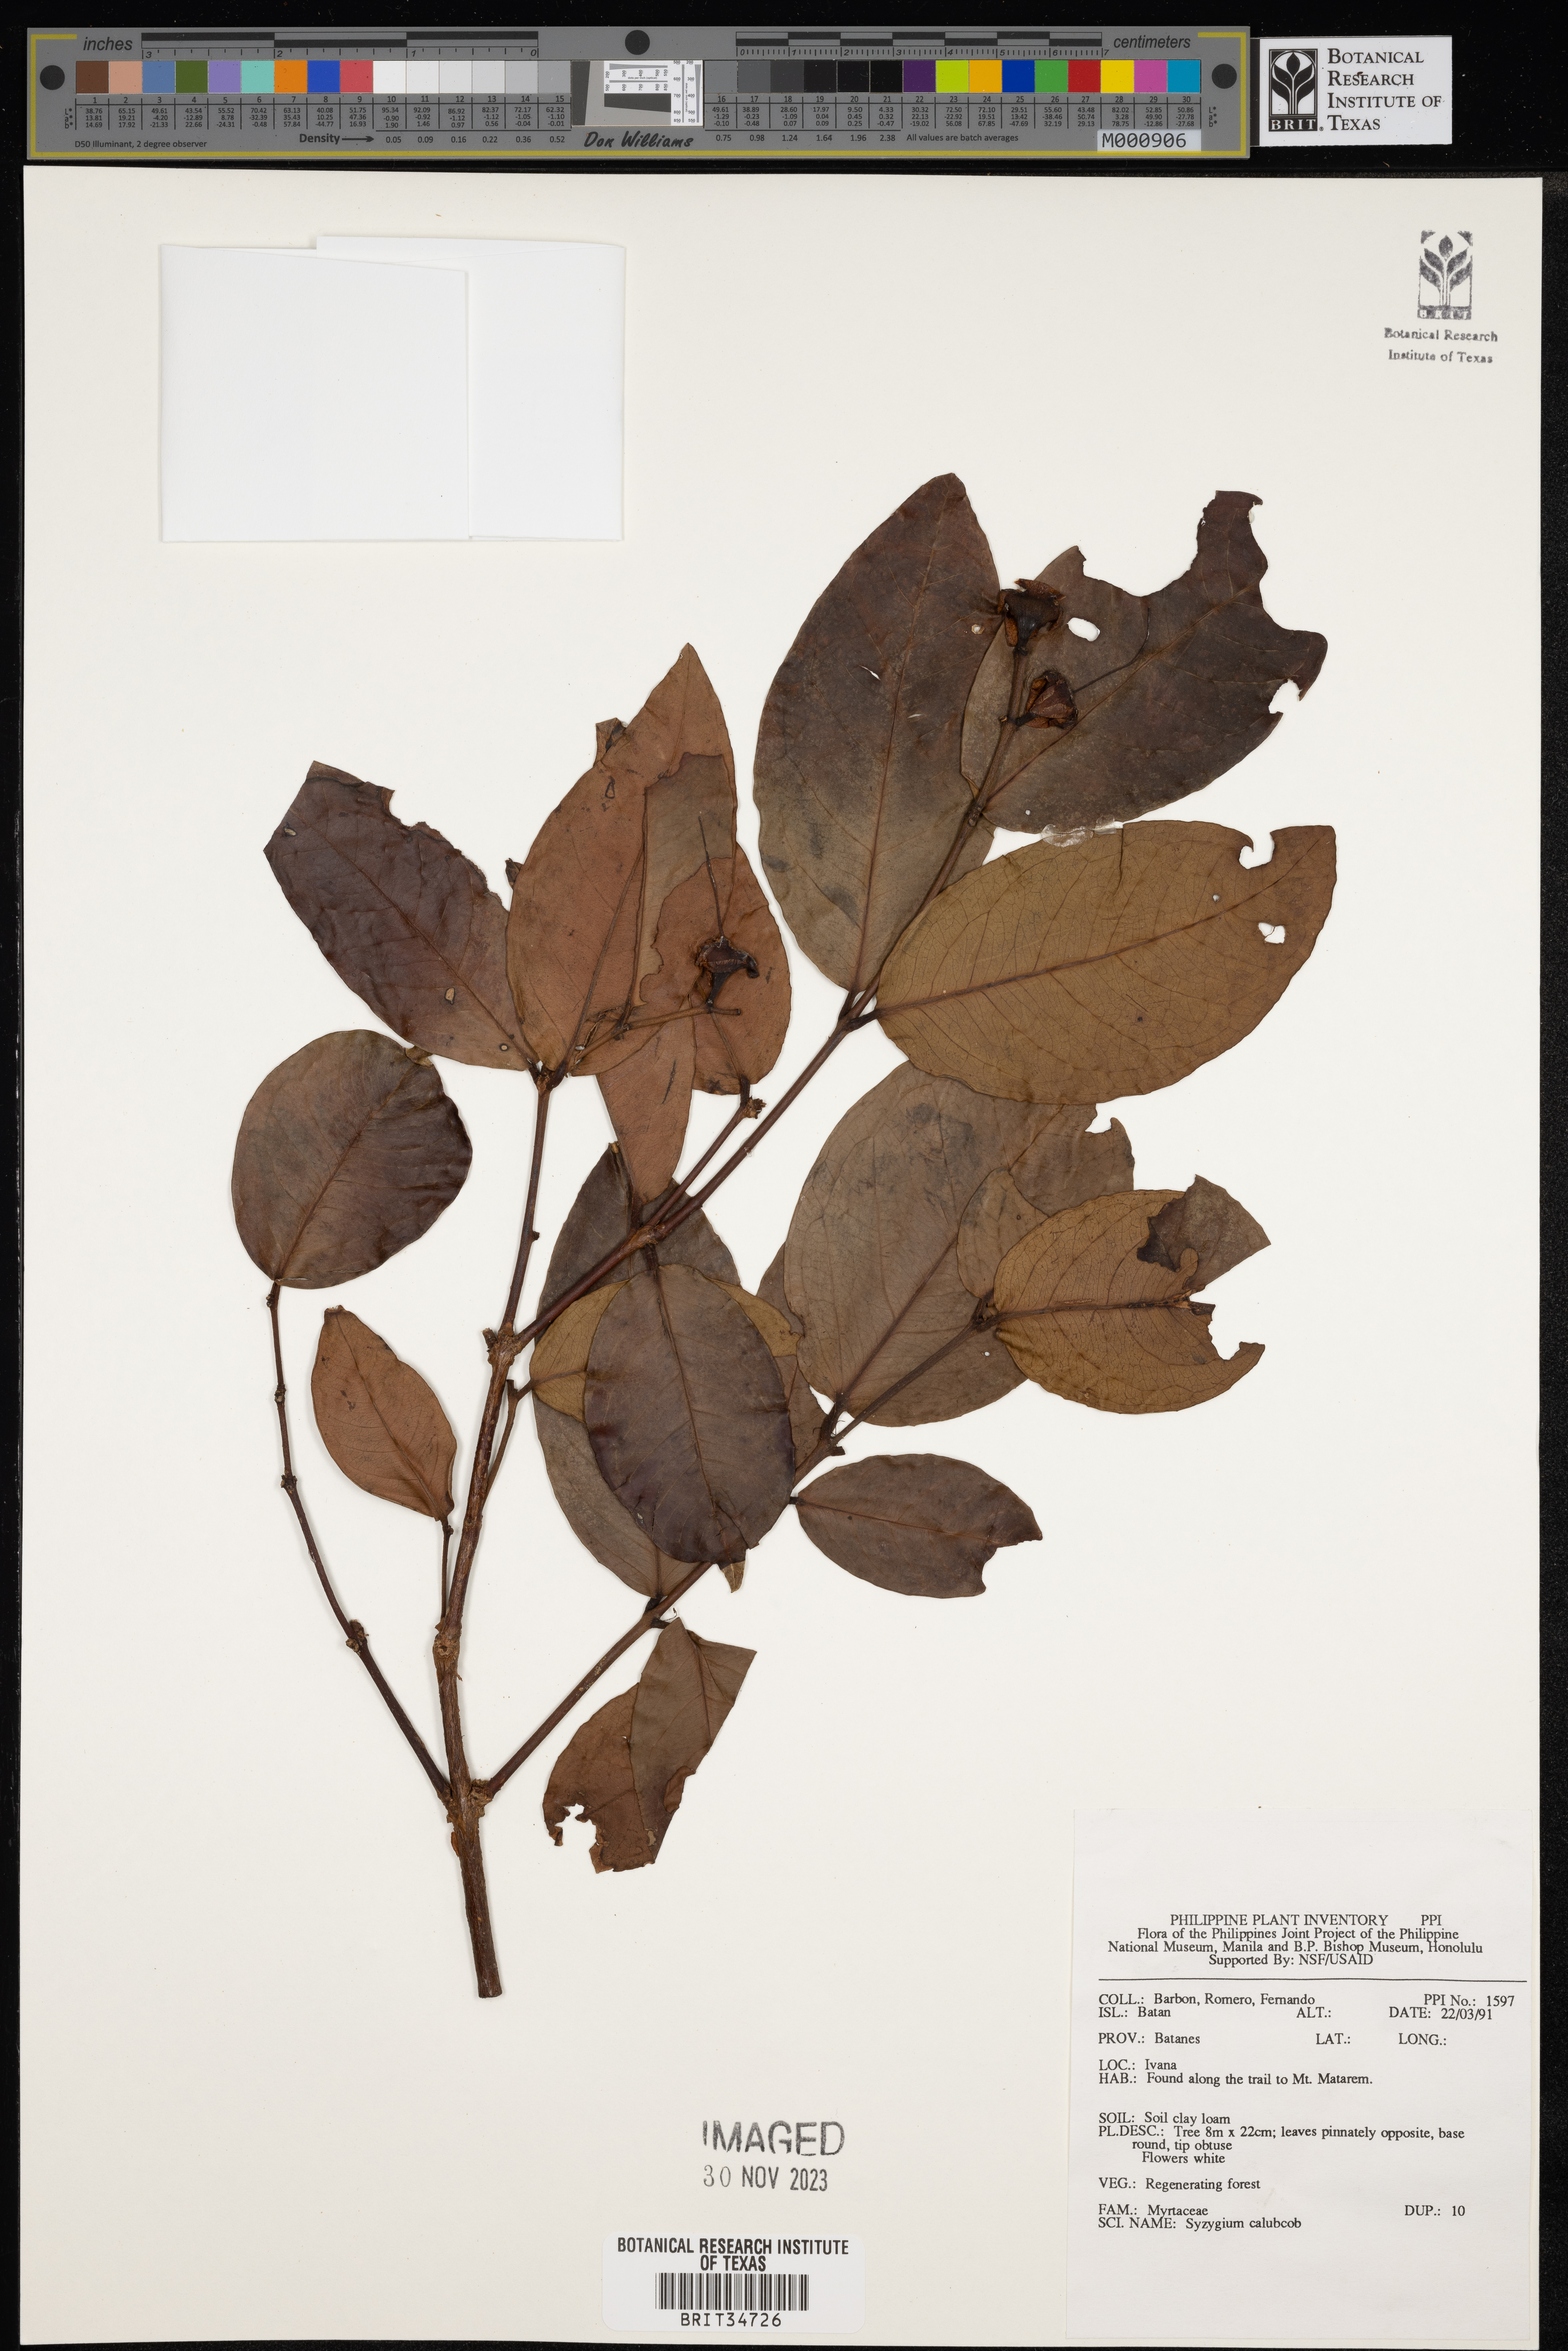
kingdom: Plantae
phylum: Tracheophyta
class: Magnoliopsida
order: Myrtales
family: Myrtaceae
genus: Syzygium
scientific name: Syzygium calubcob
